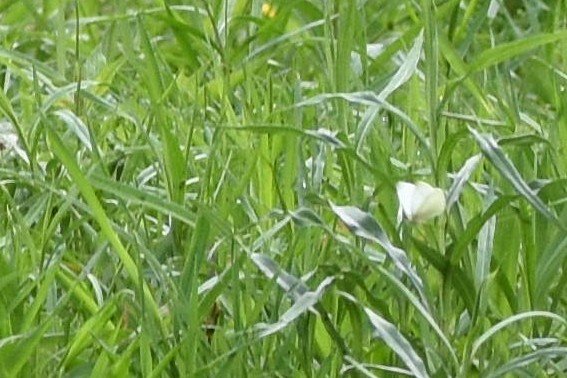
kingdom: Animalia
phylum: Arthropoda
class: Insecta
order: Lepidoptera
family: Pieridae
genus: Pieris
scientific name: Pieris rapae
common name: Cabbage White
